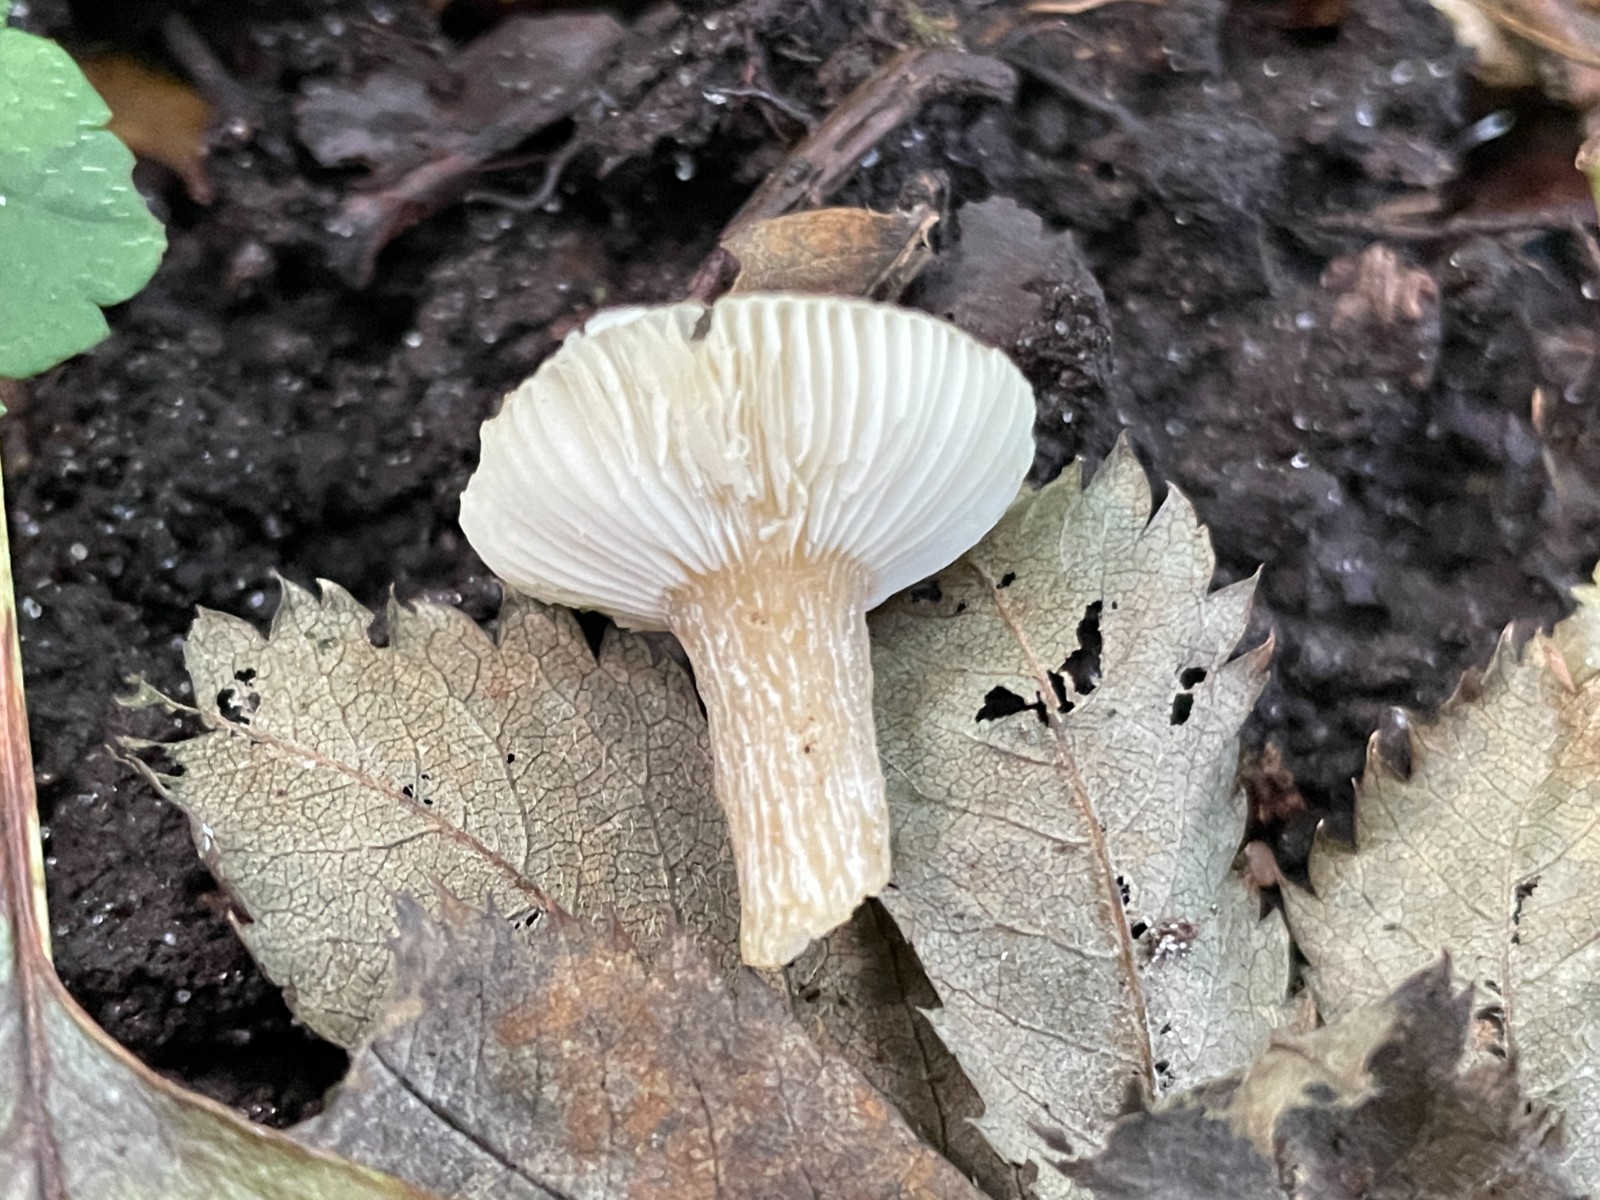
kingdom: Fungi
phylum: Basidiomycota
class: Agaricomycetes
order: Russulales
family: Russulaceae
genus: Russula
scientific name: Russula
